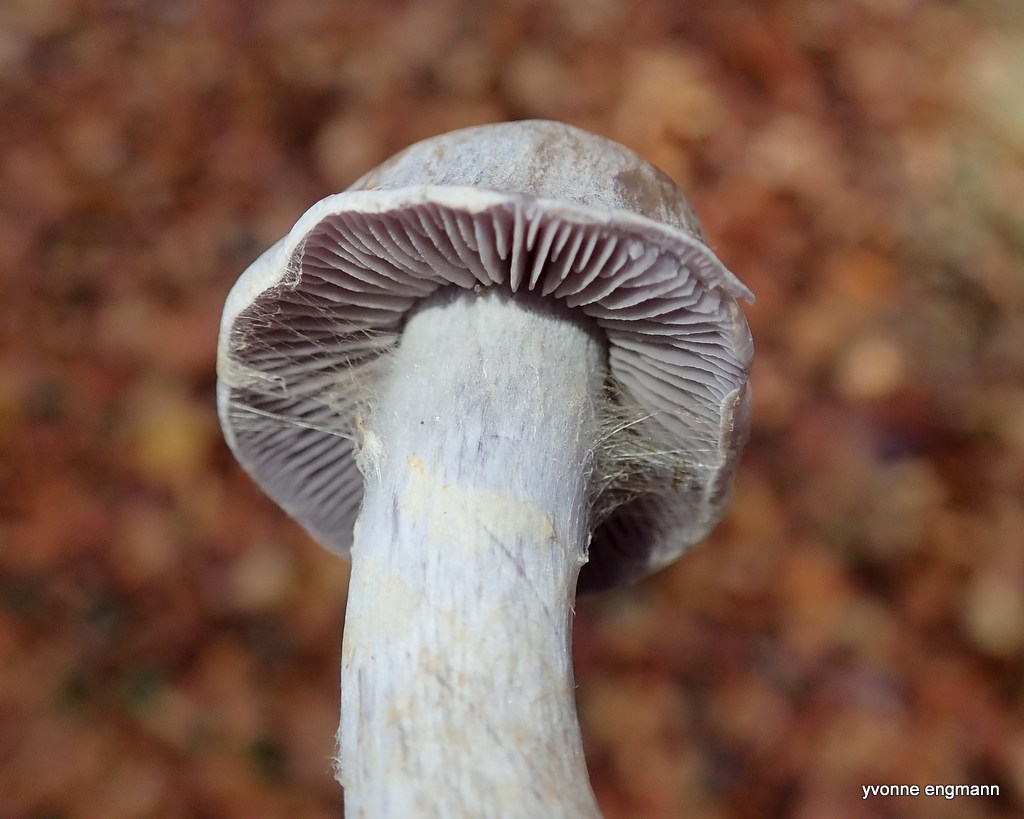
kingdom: Fungi
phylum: Basidiomycota
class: Agaricomycetes
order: Agaricales
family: Cortinariaceae
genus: Cortinarius
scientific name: Cortinarius lebretonii
